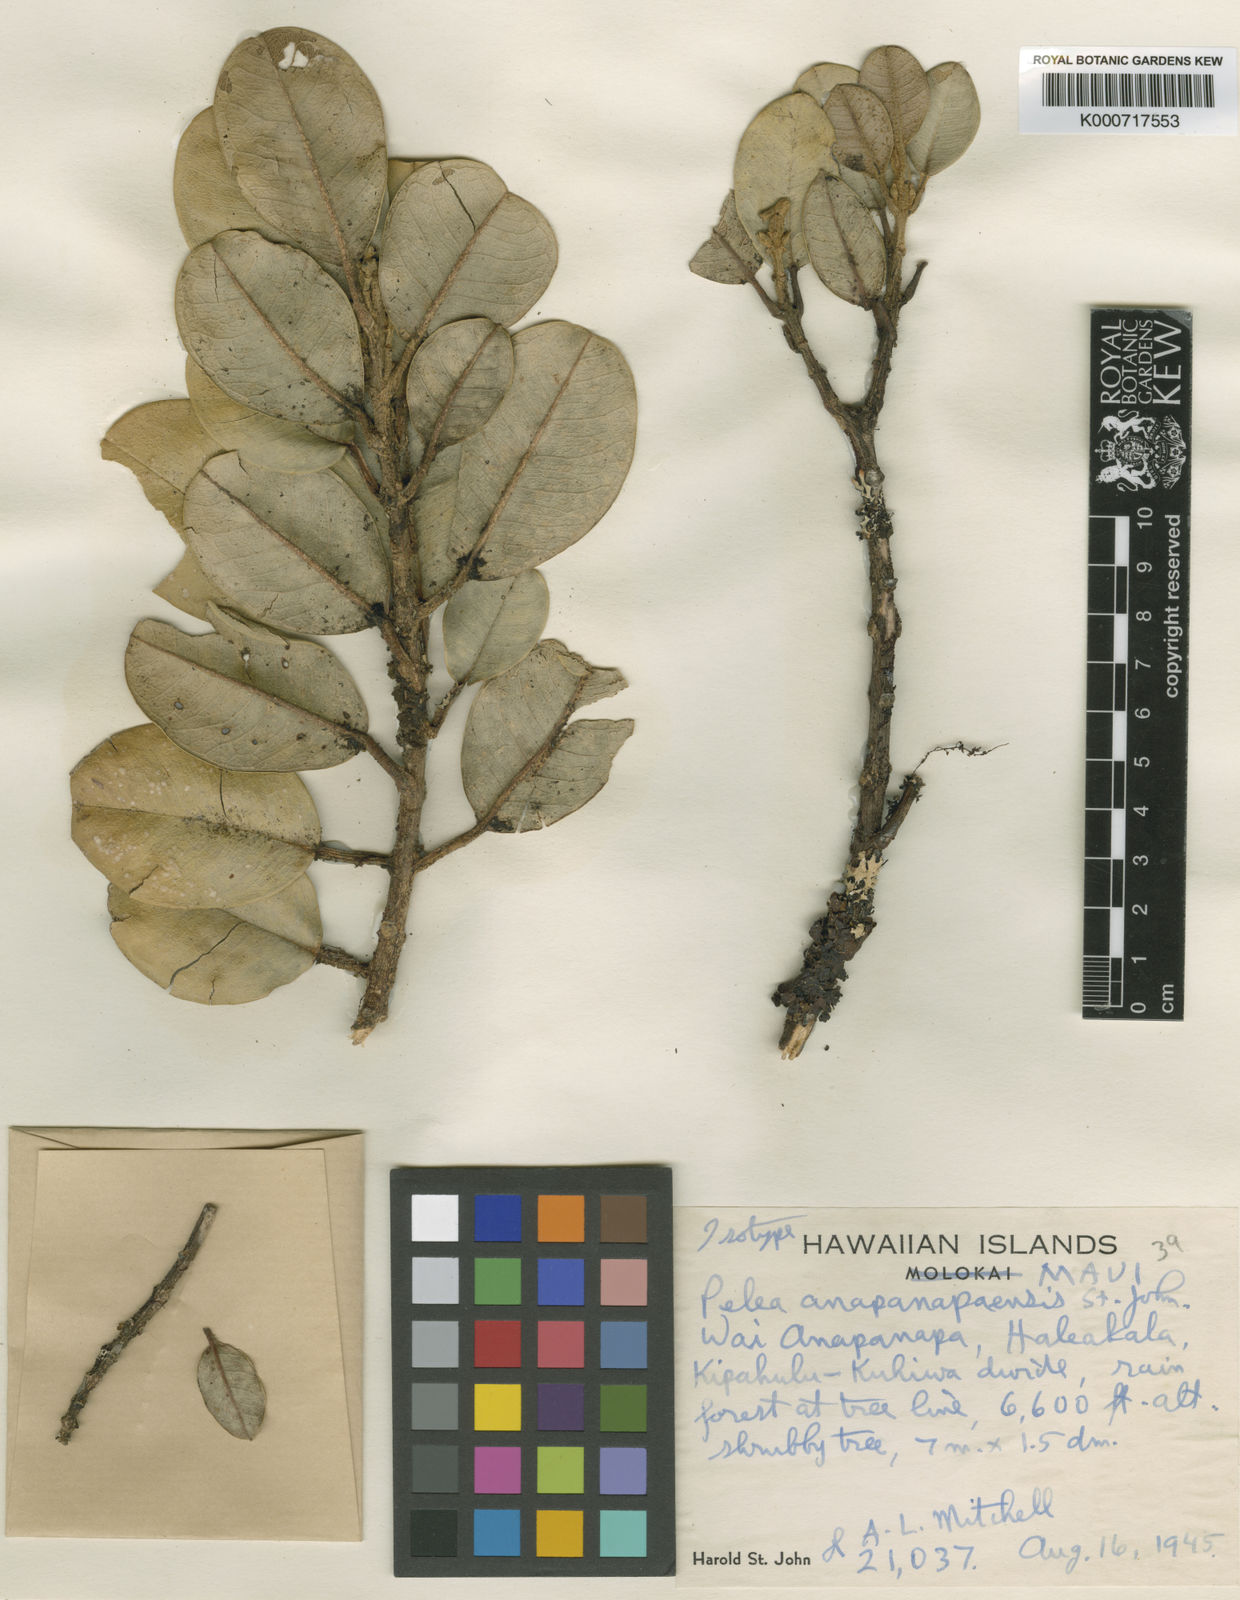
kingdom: Plantae
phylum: Tracheophyta
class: Magnoliopsida
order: Sapindales
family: Rutaceae
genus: Melicope
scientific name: Melicope volcanica
